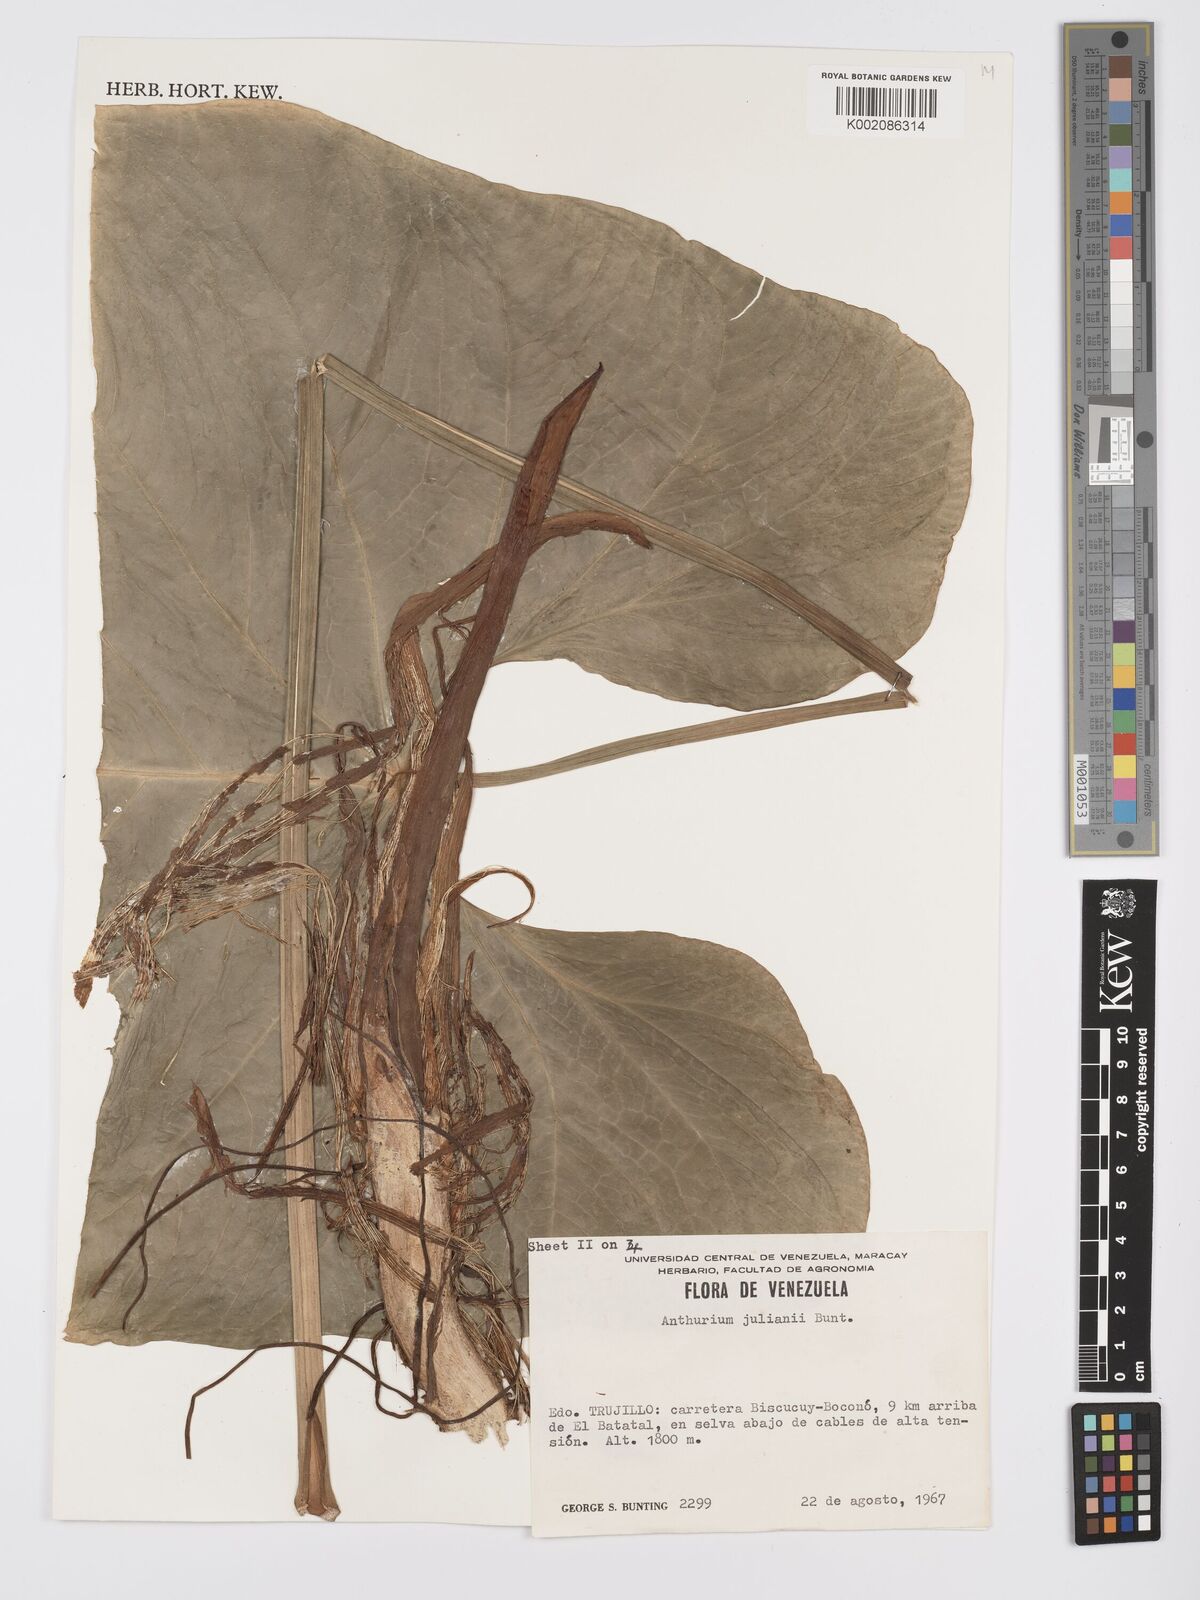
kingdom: Plantae
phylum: Tracheophyta
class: Liliopsida
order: Alismatales
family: Araceae
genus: Anthurium
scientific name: Anthurium julianii
